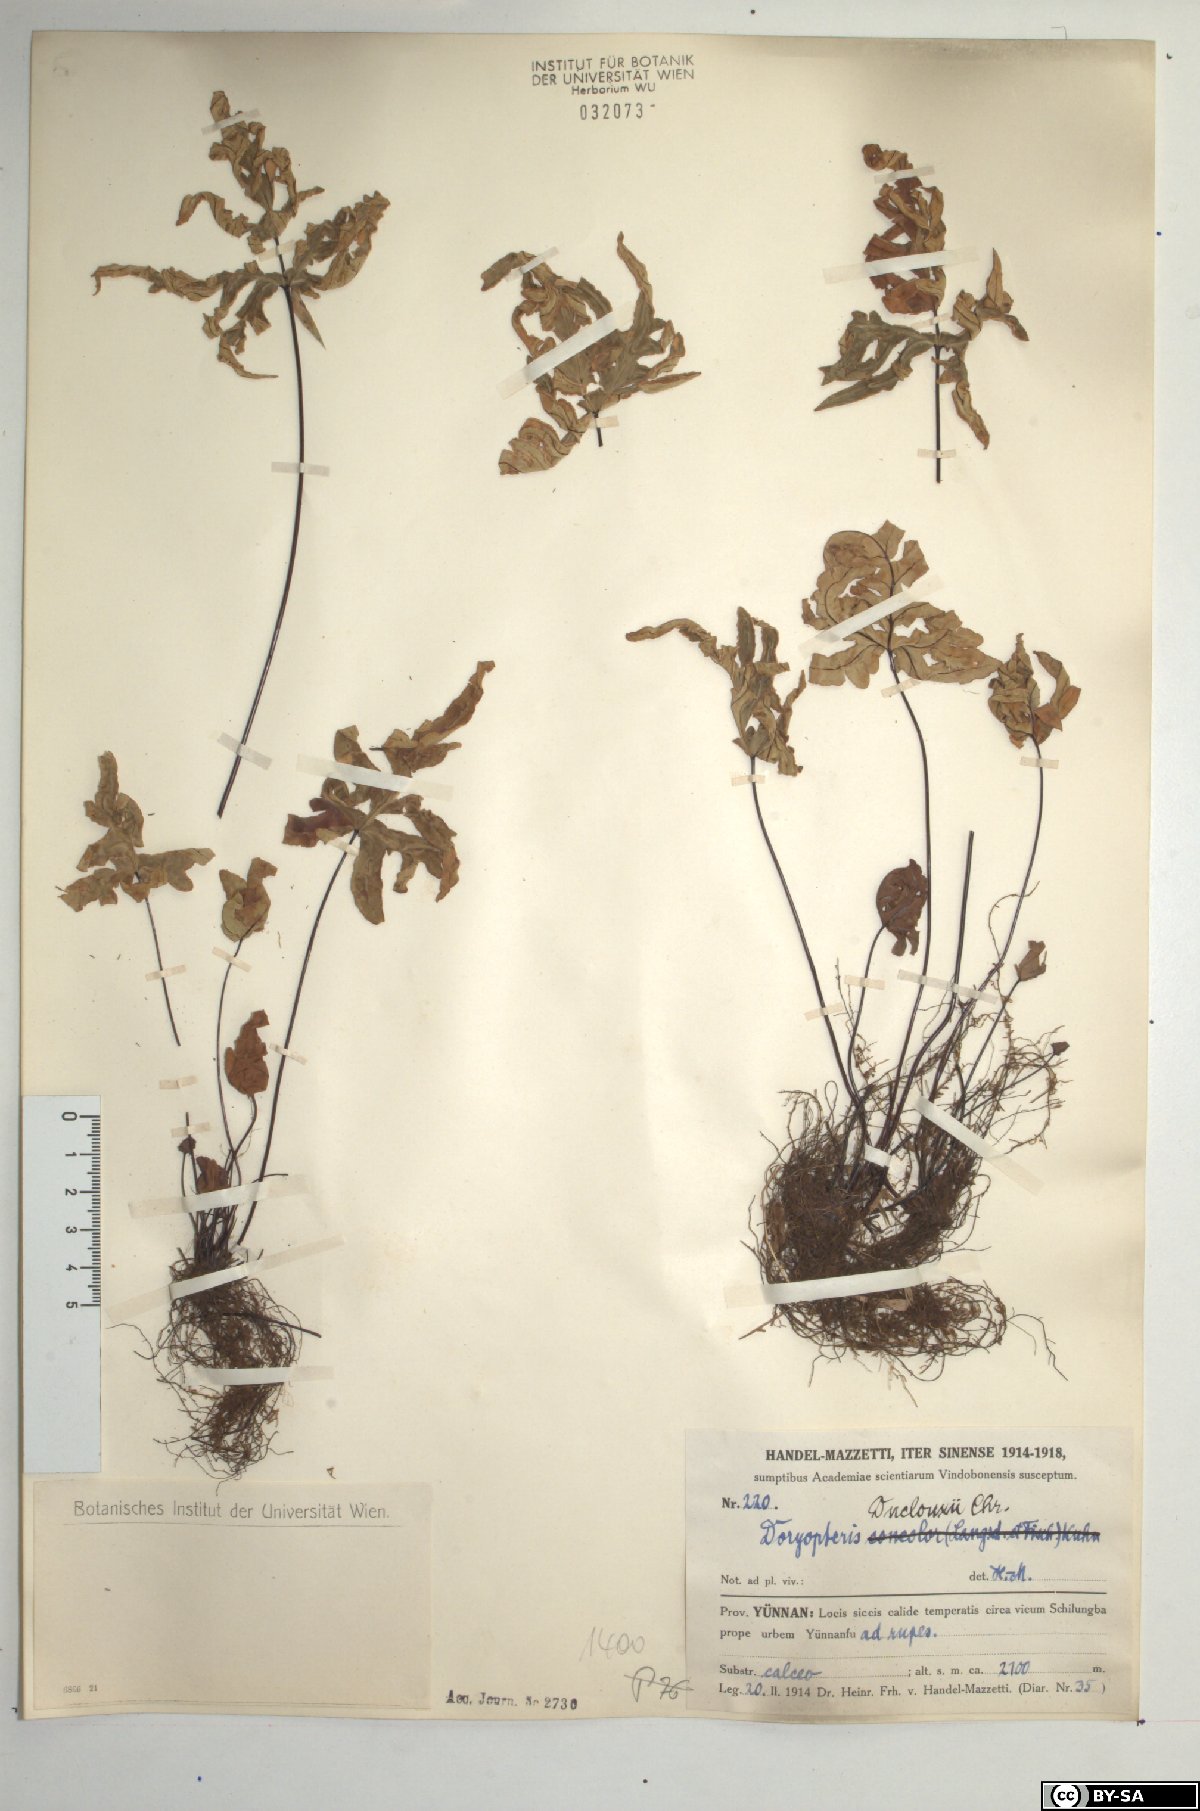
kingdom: Plantae
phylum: Tracheophyta
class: Polypodiopsida
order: Polypodiales
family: Pteridaceae
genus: Aleuritopteris
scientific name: Aleuritopteris duclouxii
